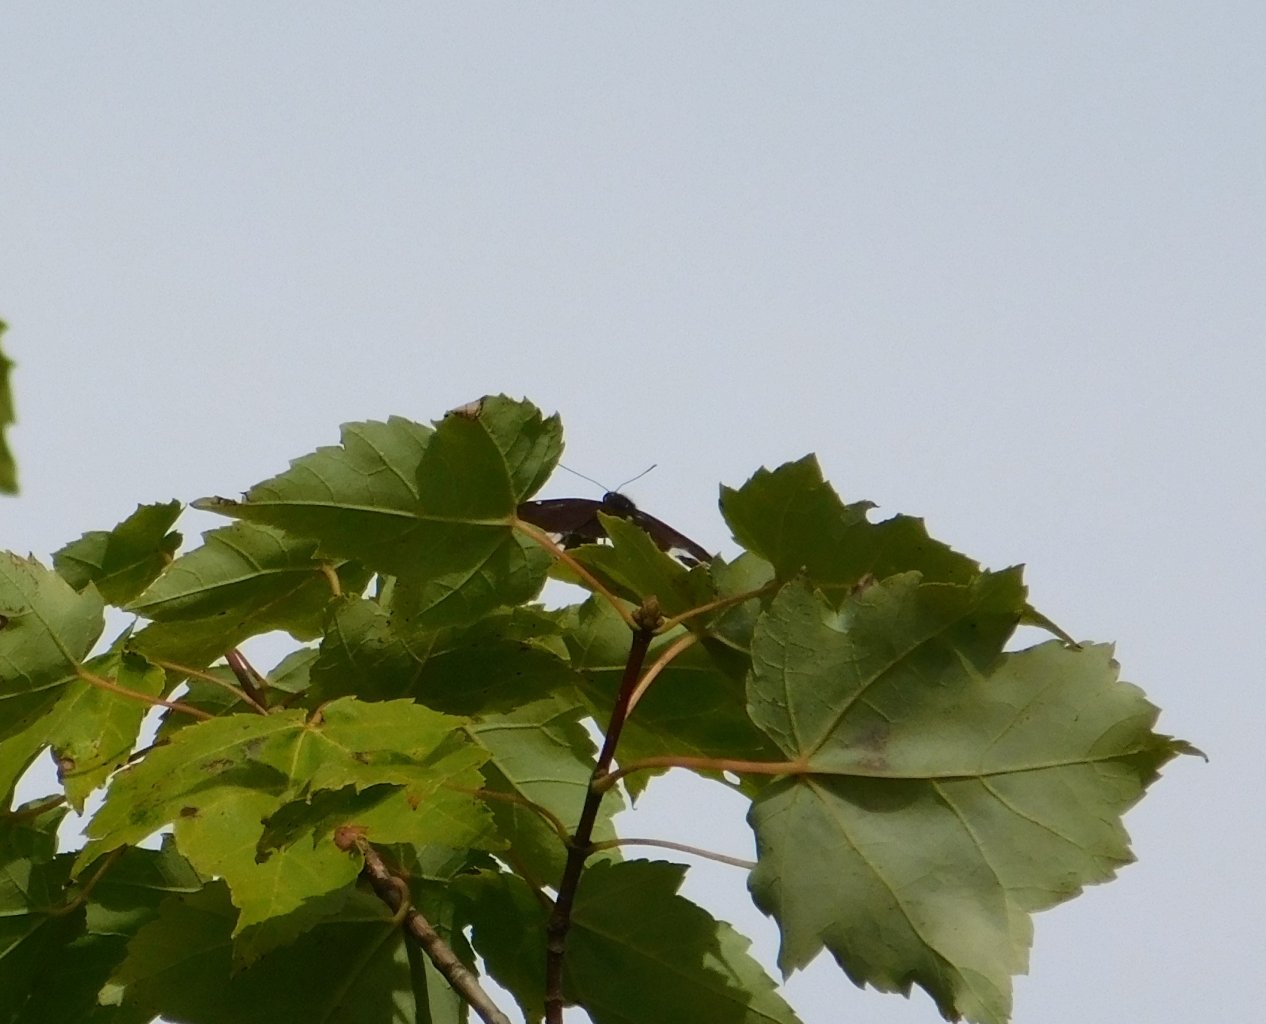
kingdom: Animalia
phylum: Arthropoda
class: Insecta
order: Lepidoptera
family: Nymphalidae
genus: Limenitis
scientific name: Limenitis arthemis
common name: Red-spotted Admiral
